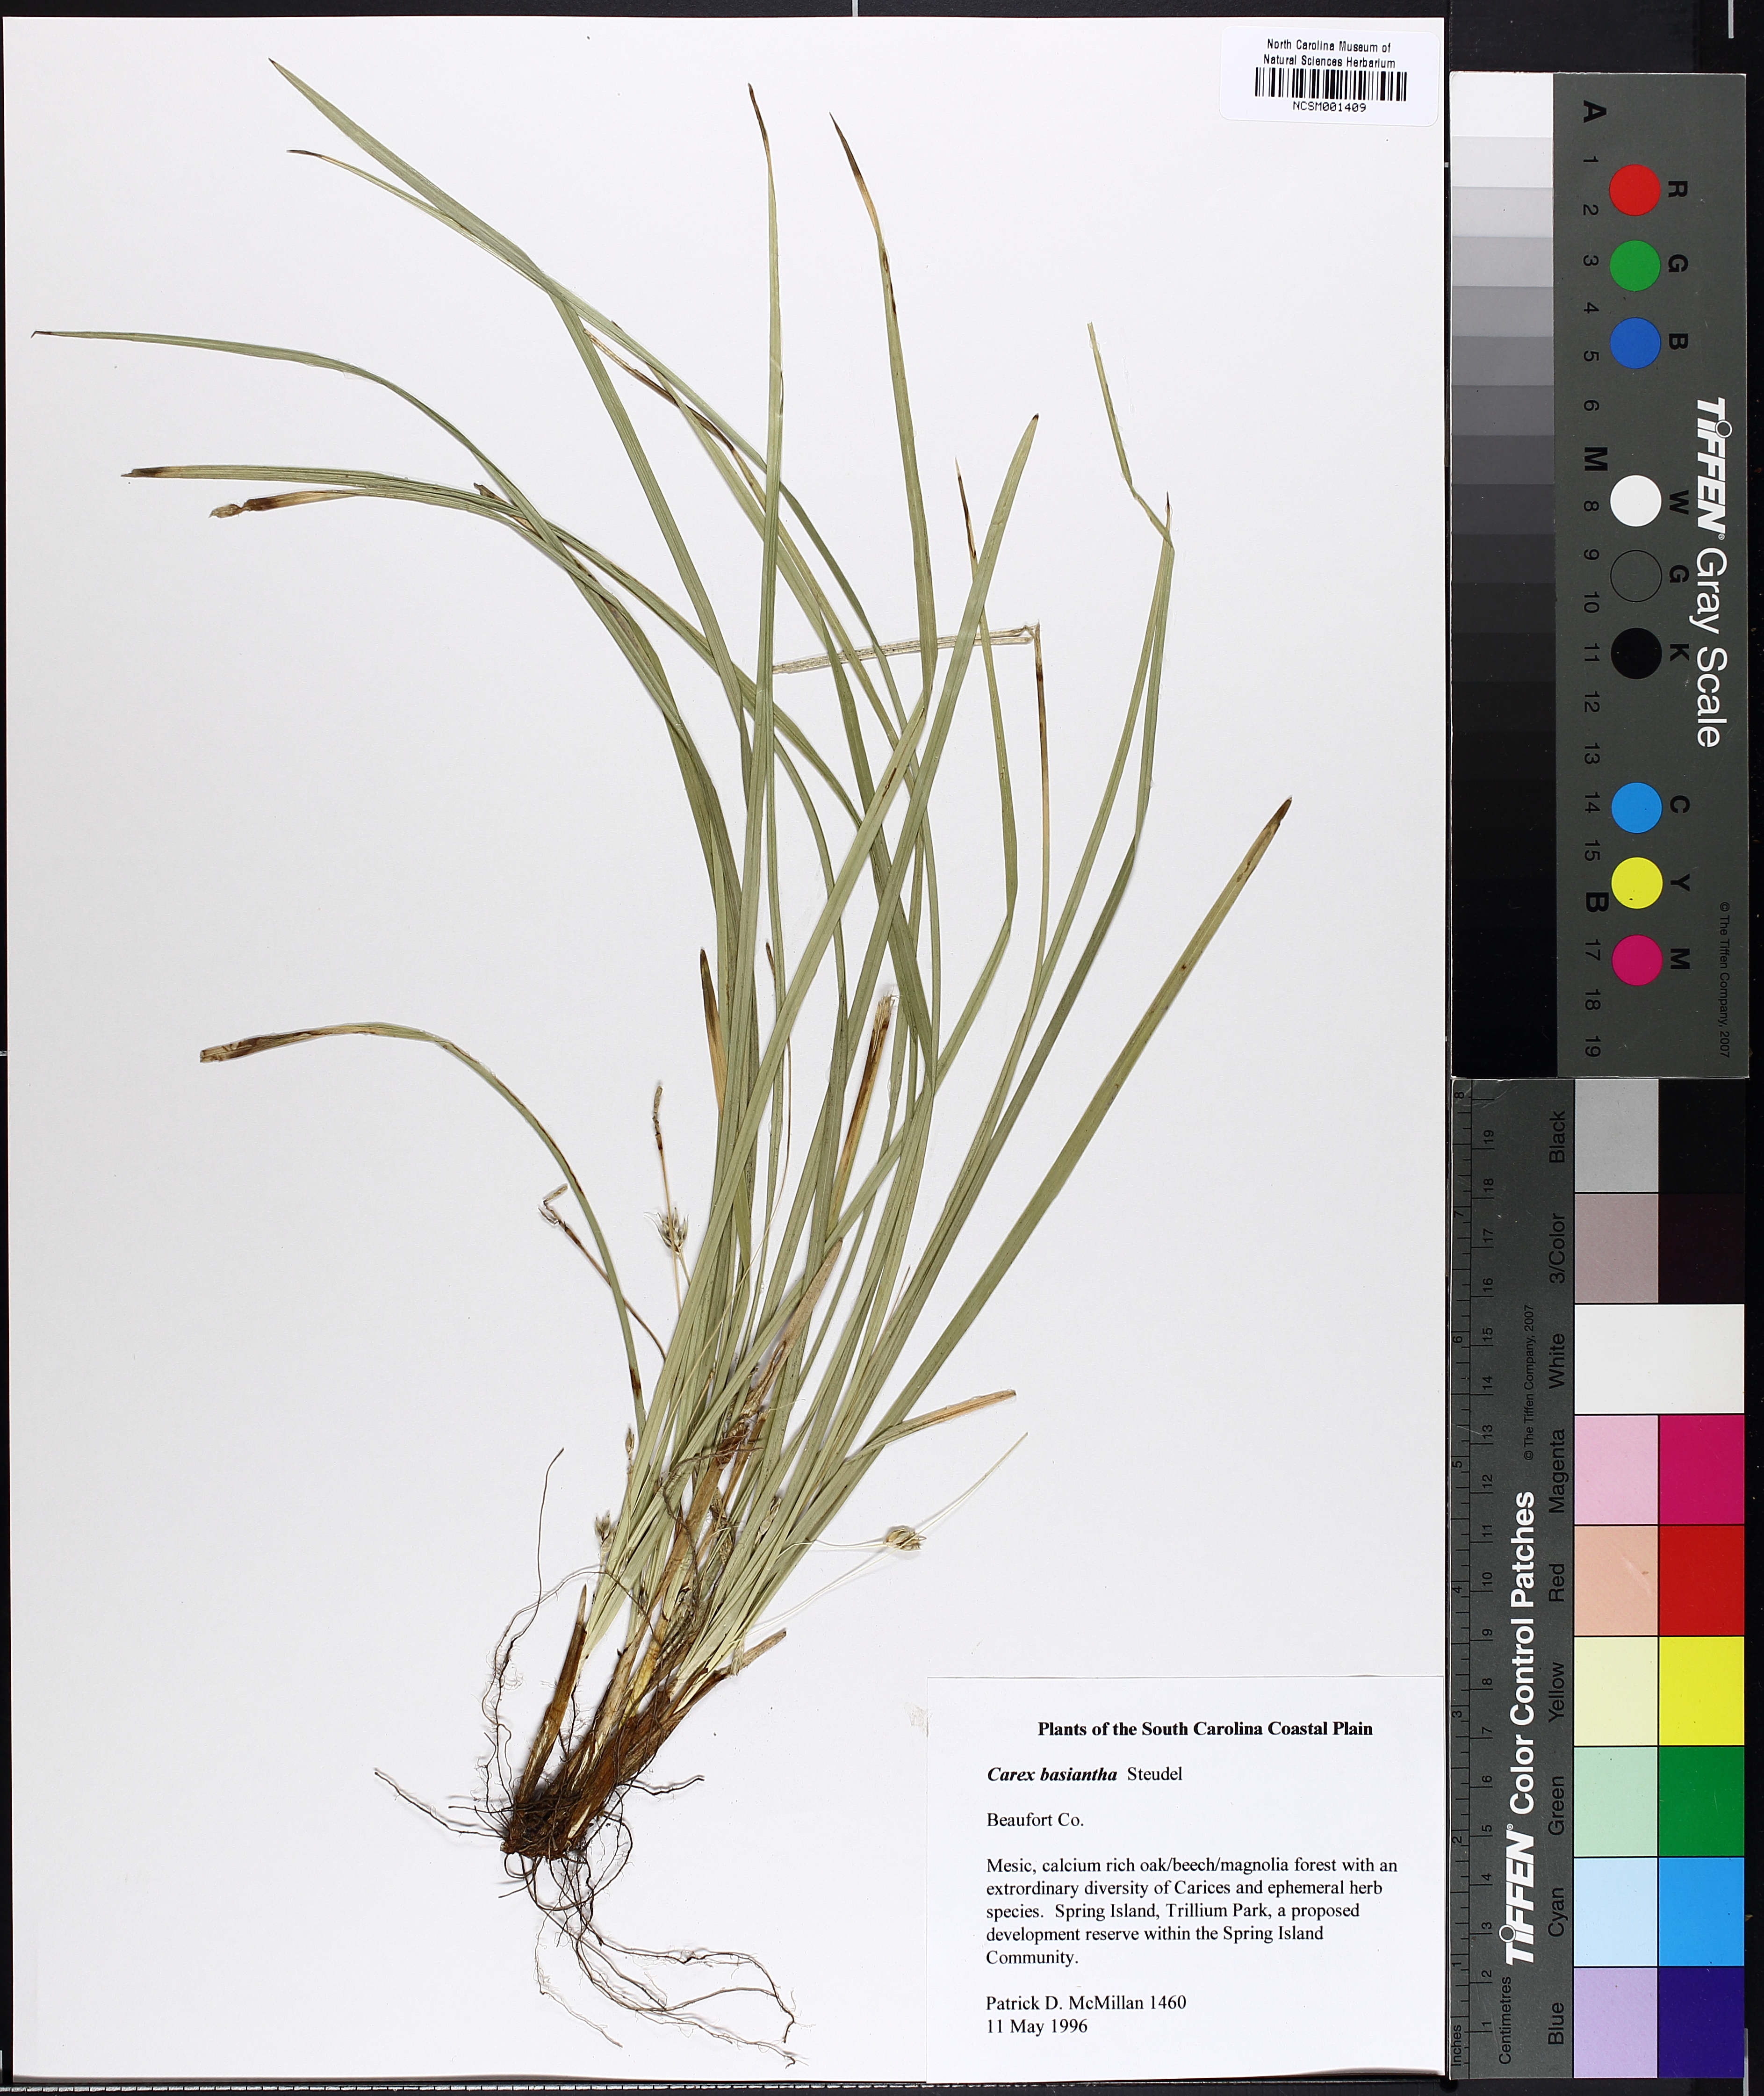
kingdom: Plantae
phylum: Tracheophyta
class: Liliopsida
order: Poales
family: Cyperaceae
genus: Carex
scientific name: Carex basiantha
